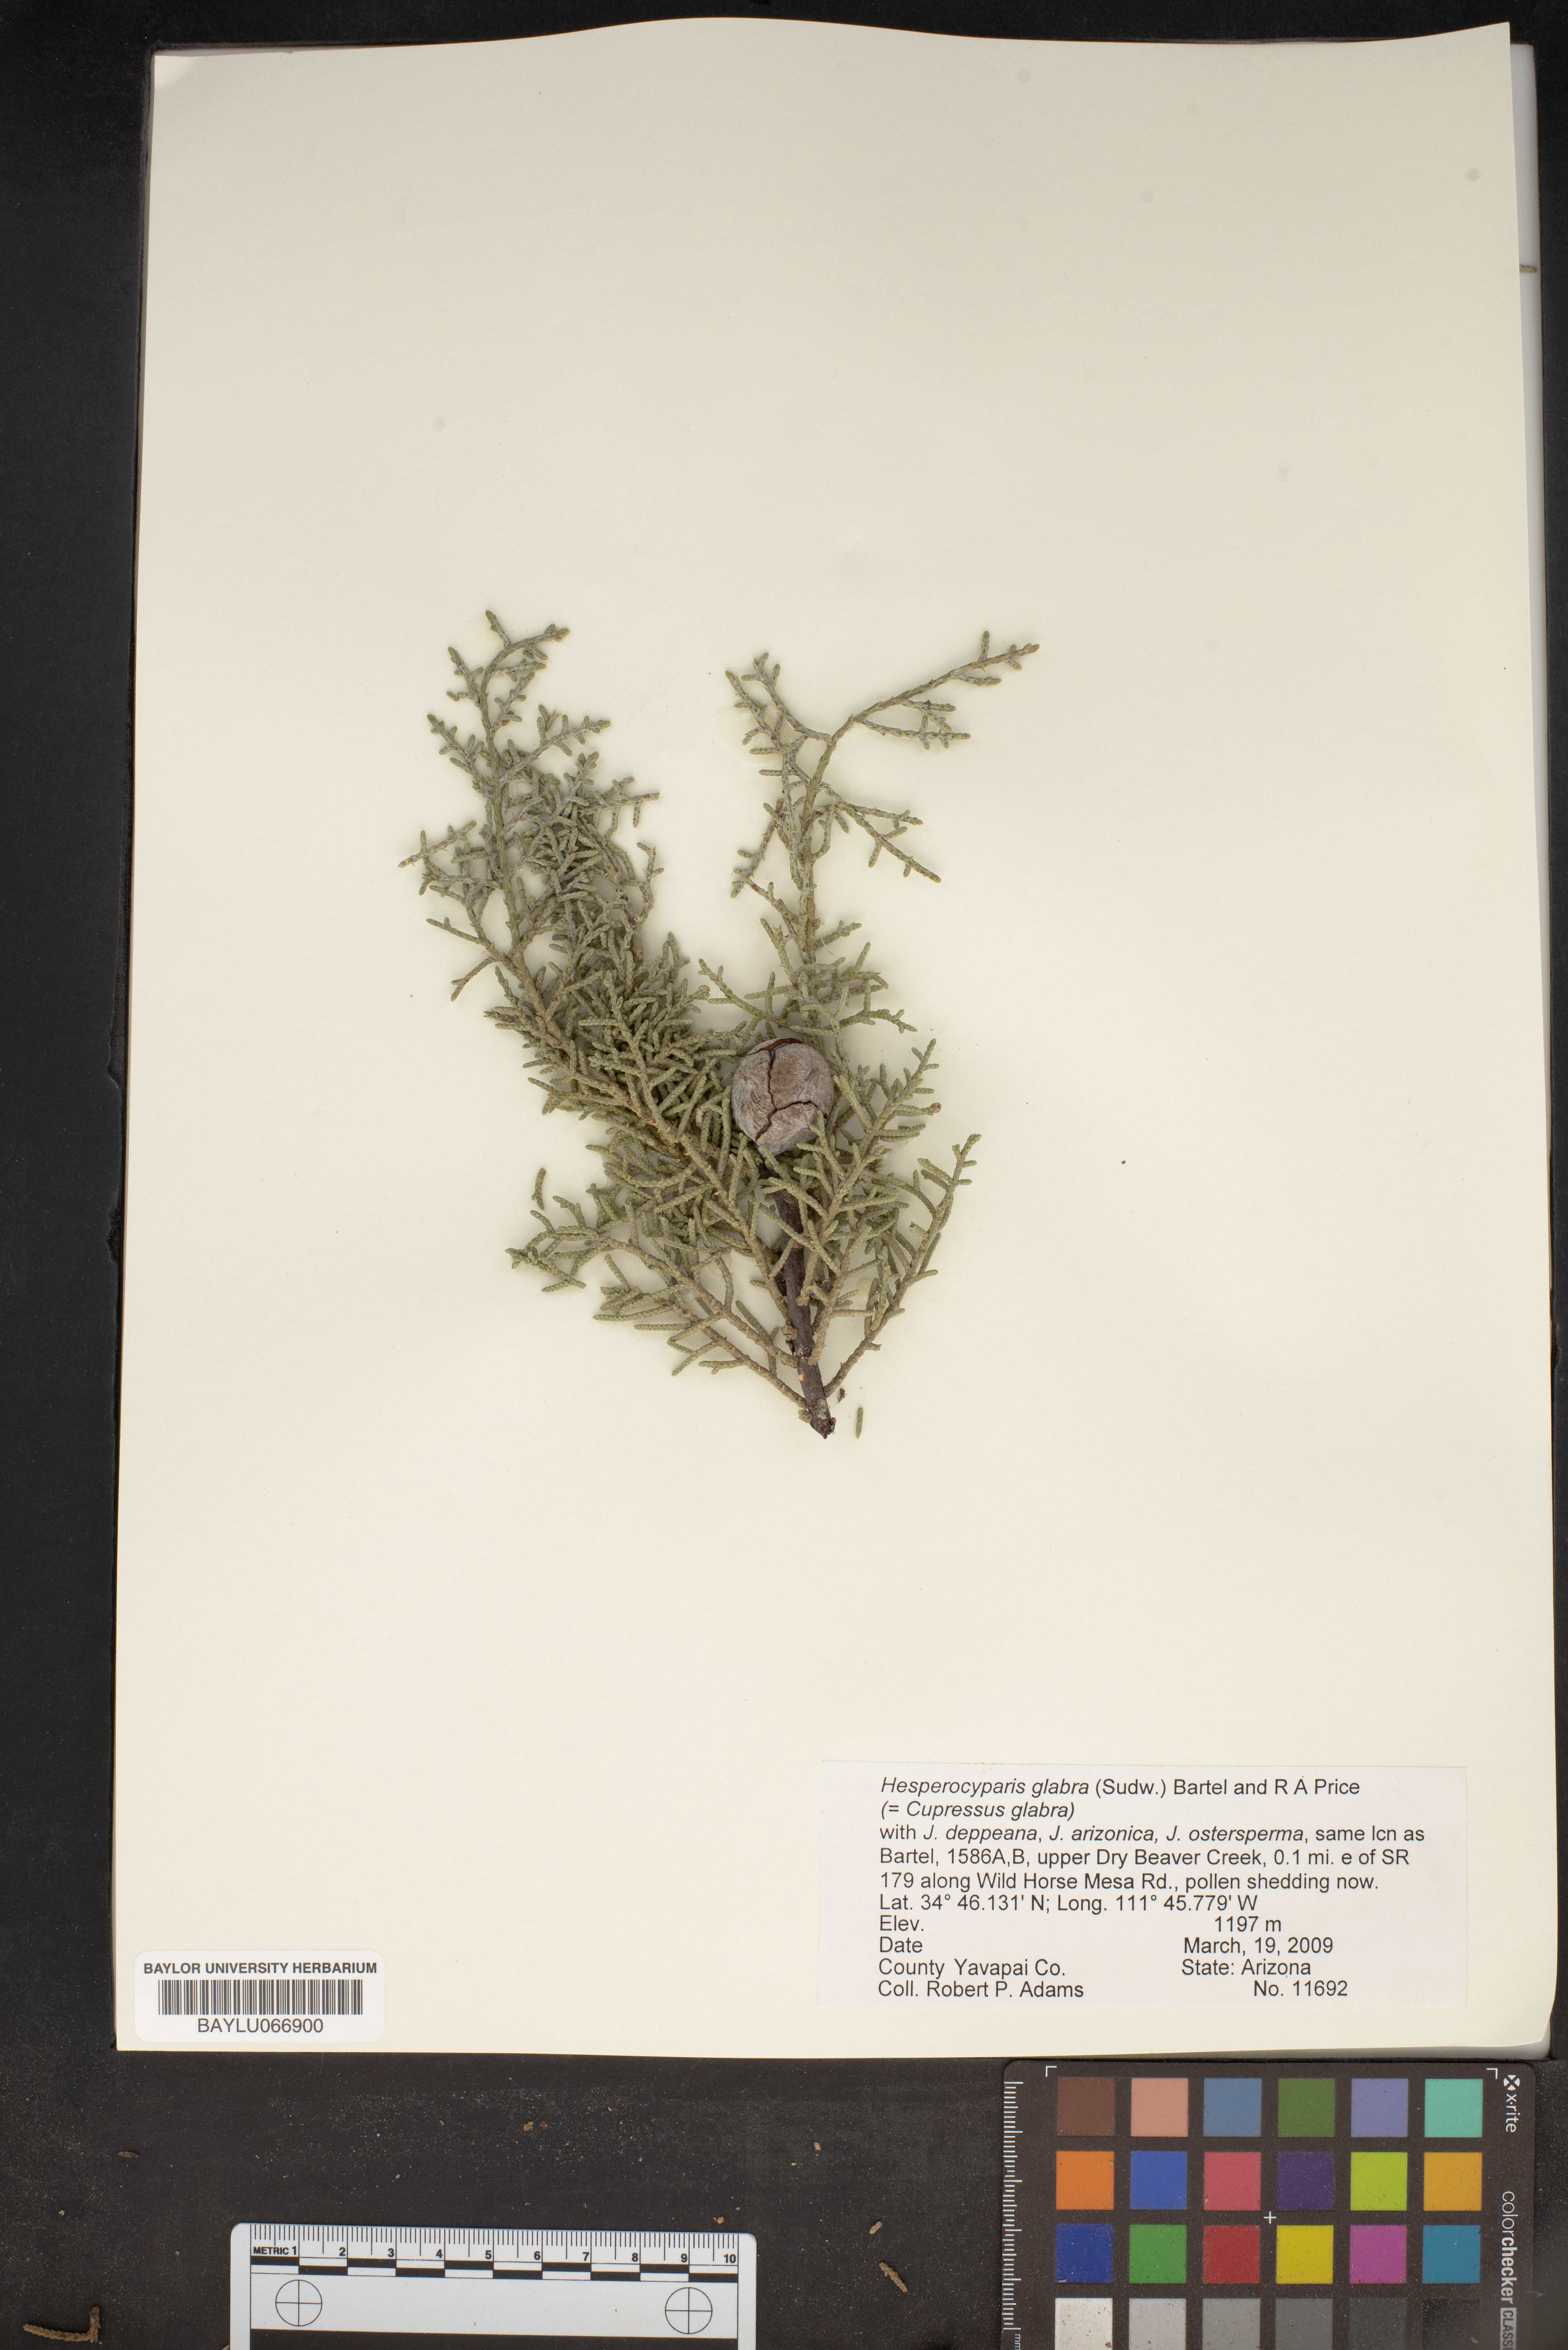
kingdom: Plantae
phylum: Tracheophyta
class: Pinopsida
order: Pinales
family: Cupressaceae
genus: Cupressus
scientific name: Cupressus arizonica
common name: Arizona cypress
